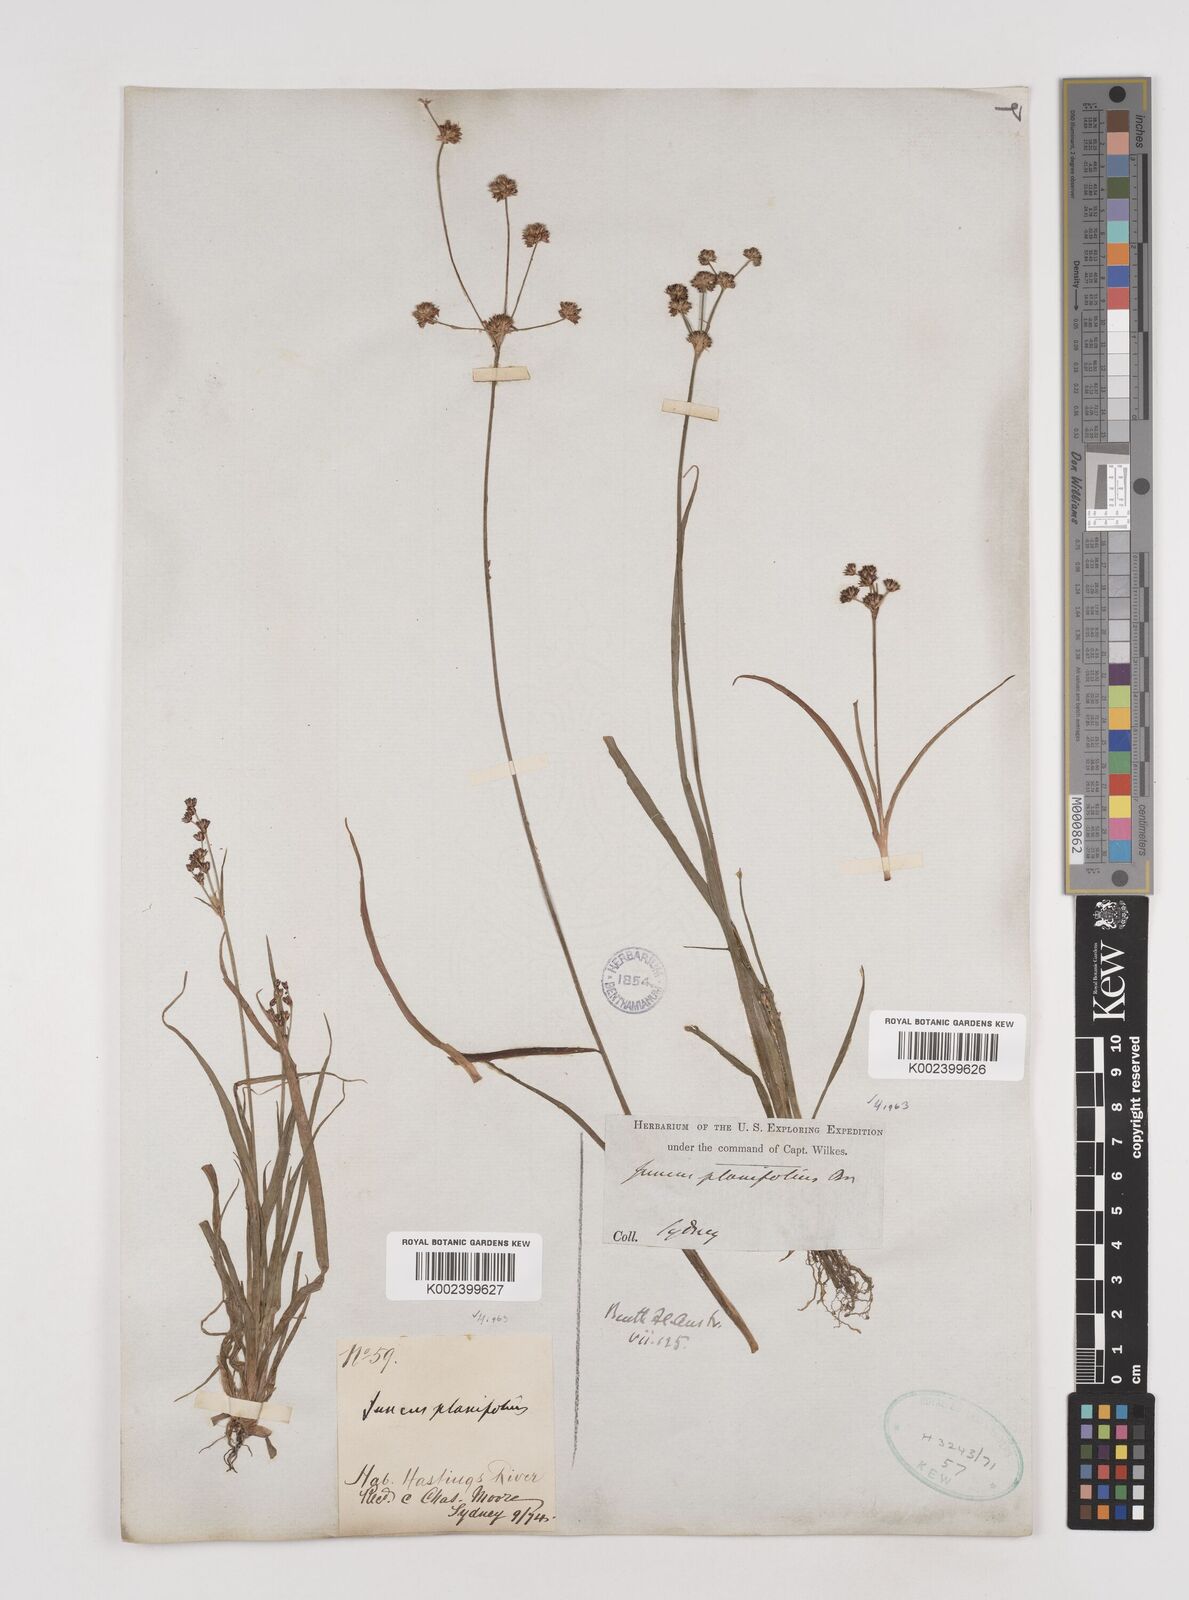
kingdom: Plantae
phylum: Tracheophyta
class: Liliopsida
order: Poales
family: Juncaceae
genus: Juncus
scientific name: Juncus planifolius
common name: Broadleaf rush
